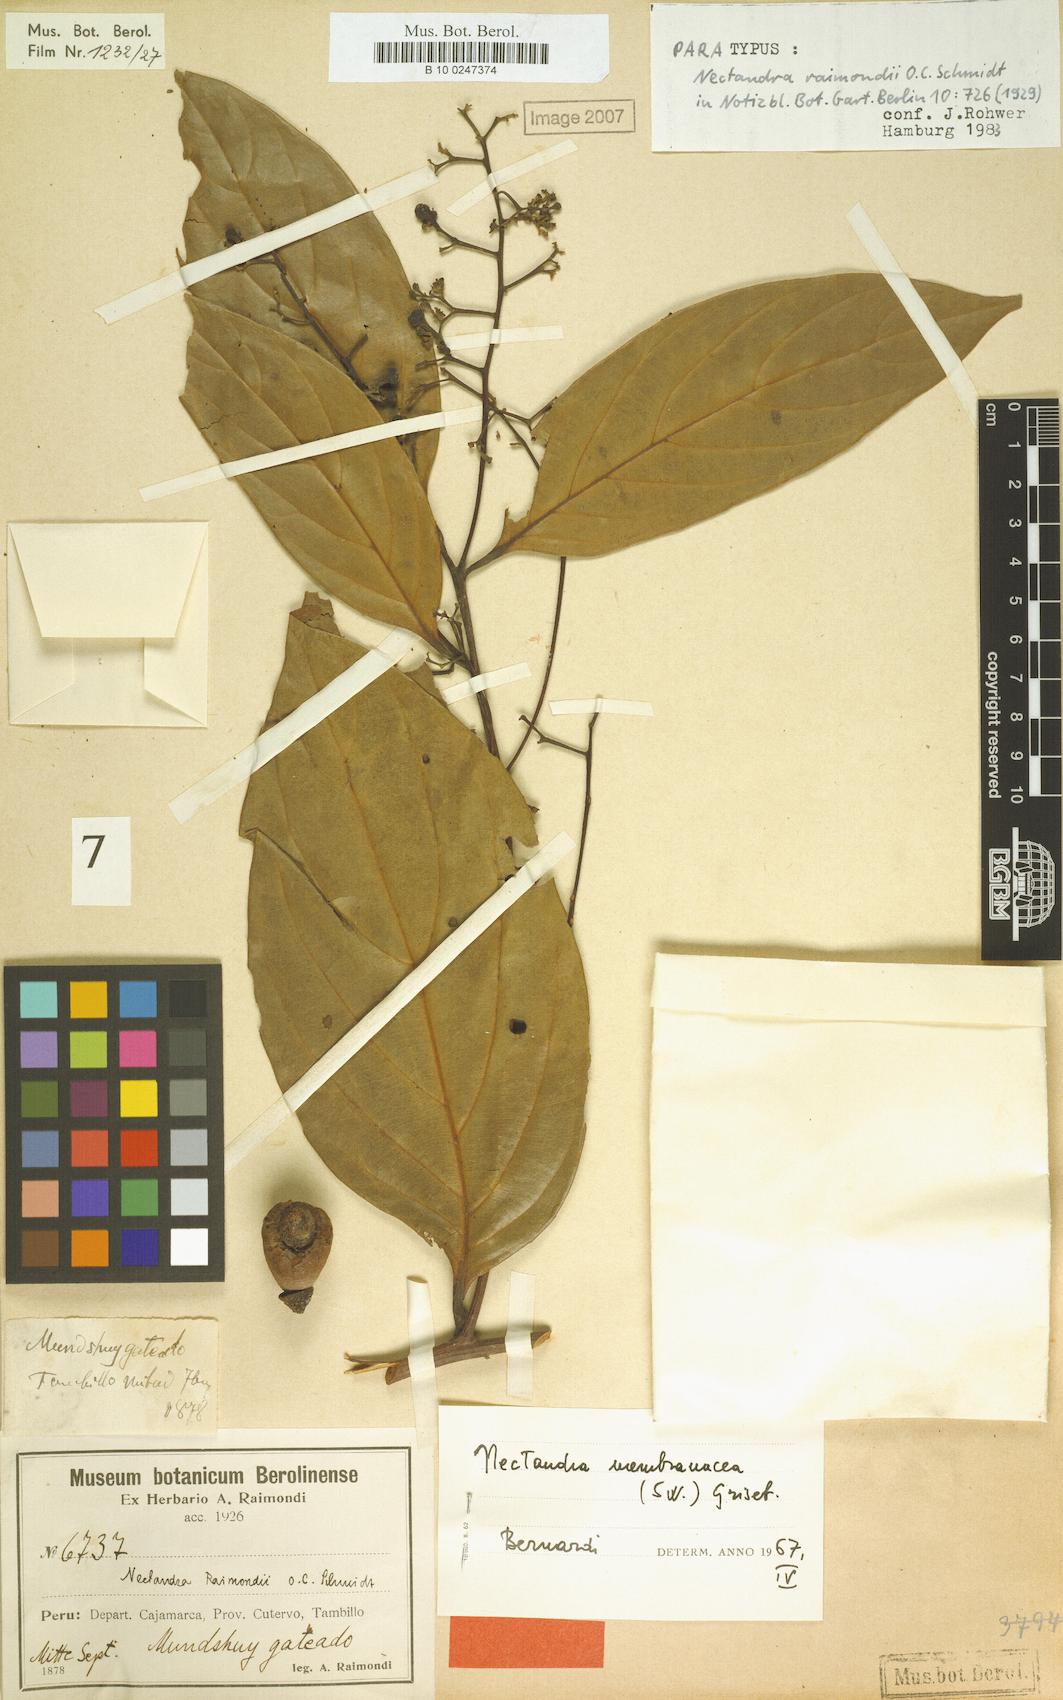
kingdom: Plantae
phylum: Tracheophyta
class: Magnoliopsida
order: Laurales
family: Lauraceae
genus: Nectandra
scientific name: Nectandra membranacea
